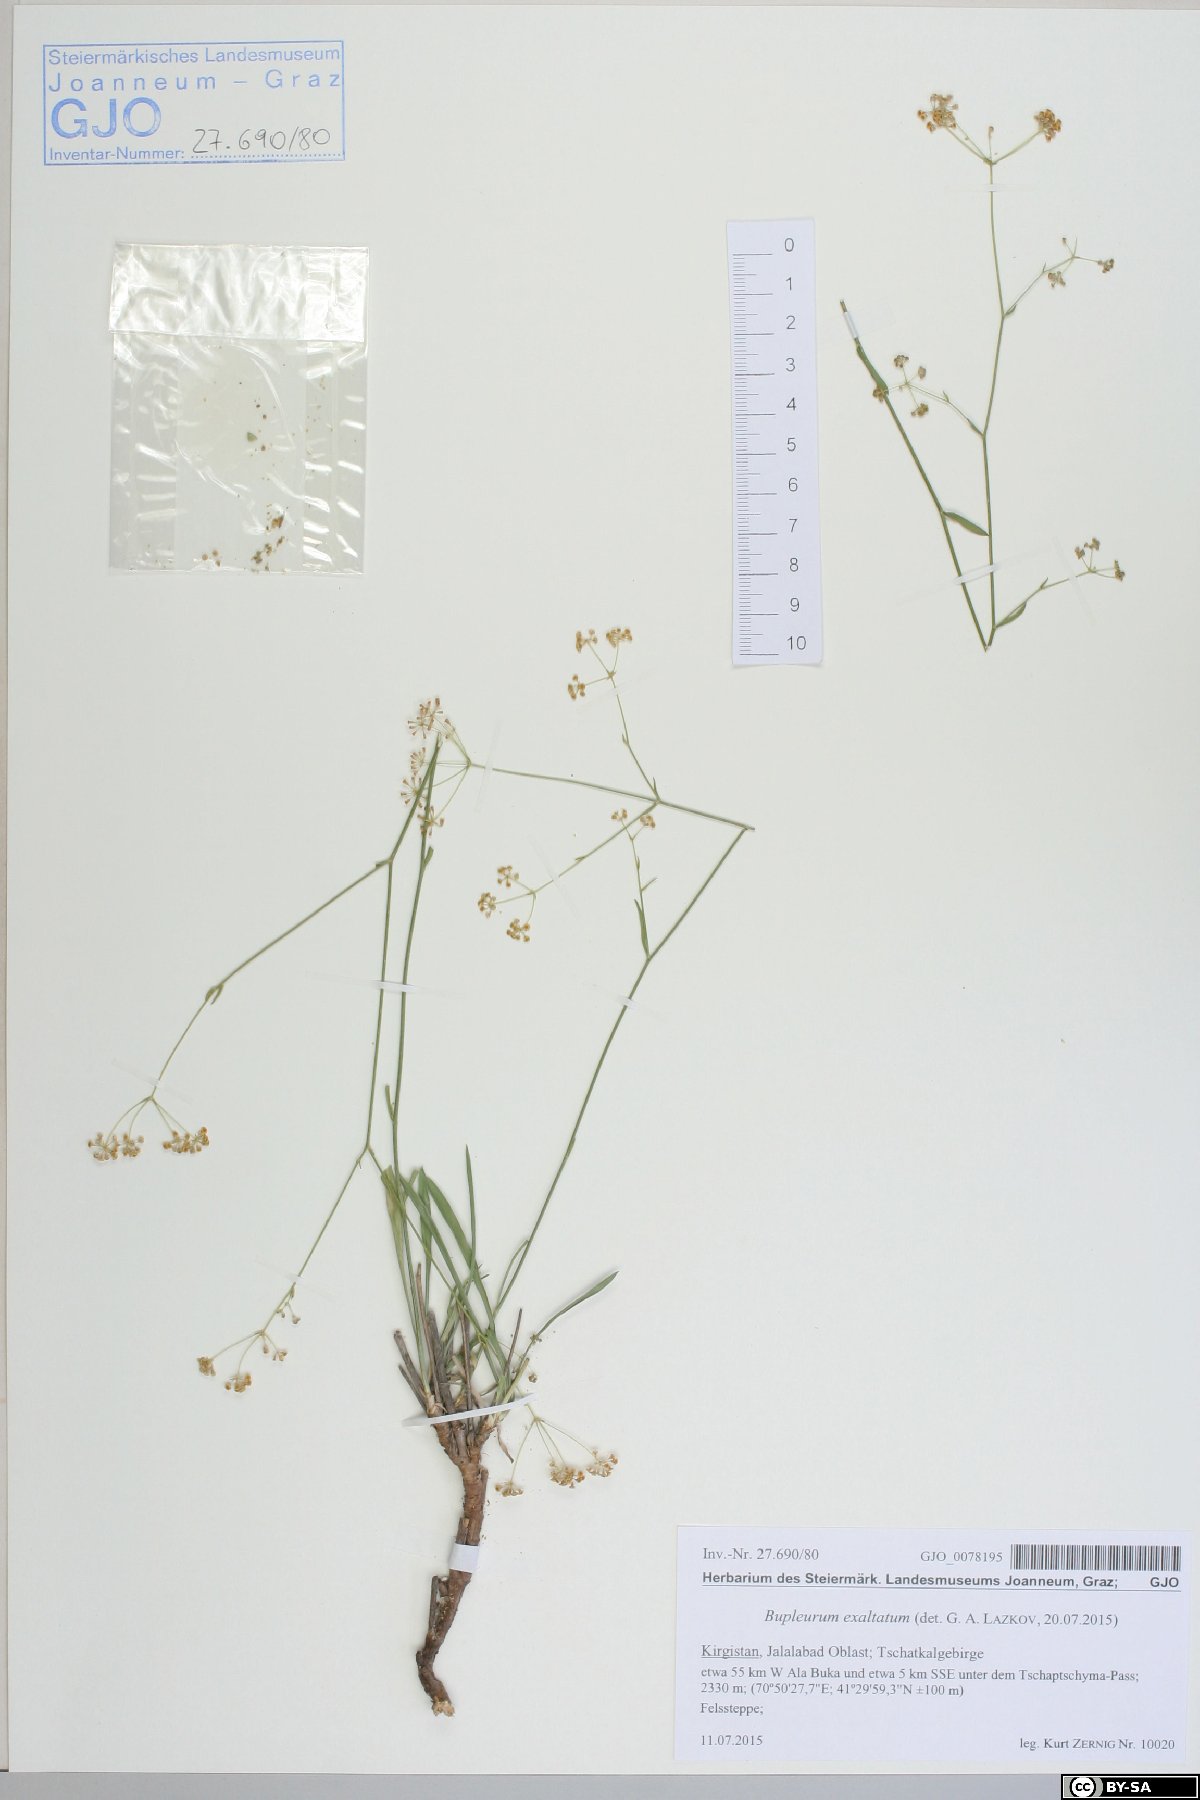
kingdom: Plantae
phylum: Tracheophyta
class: Magnoliopsida
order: Apiales
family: Apiaceae
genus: Bupleurum
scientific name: Bupleurum exaltatum
